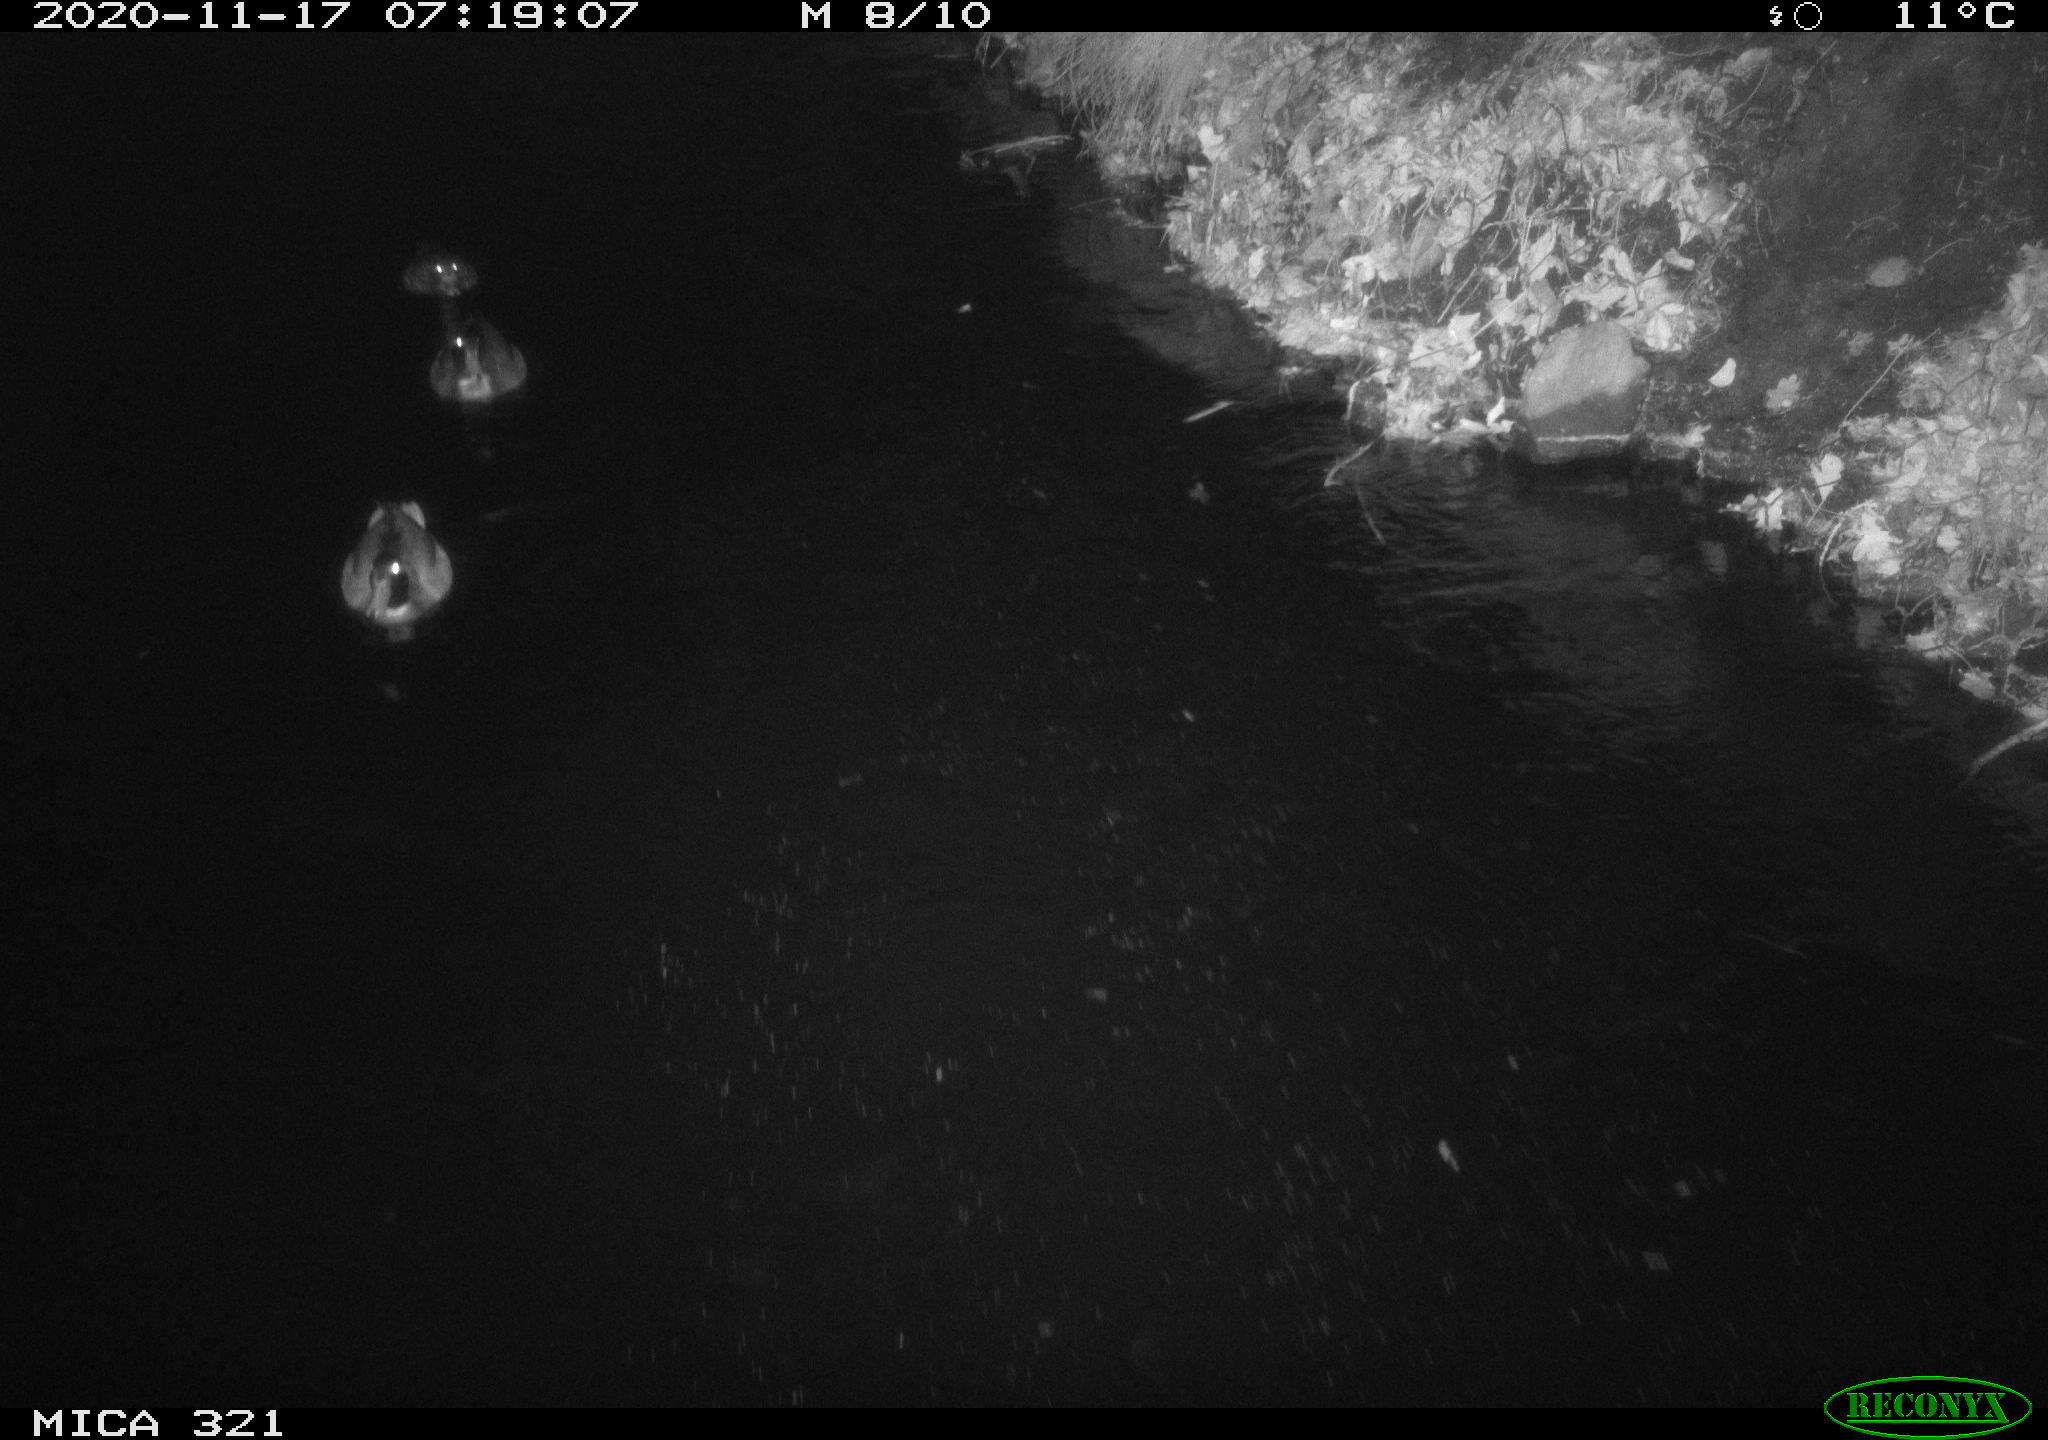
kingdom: Animalia
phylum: Chordata
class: Aves
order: Anseriformes
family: Anatidae
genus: Anas
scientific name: Anas platyrhynchos
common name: Mallard
